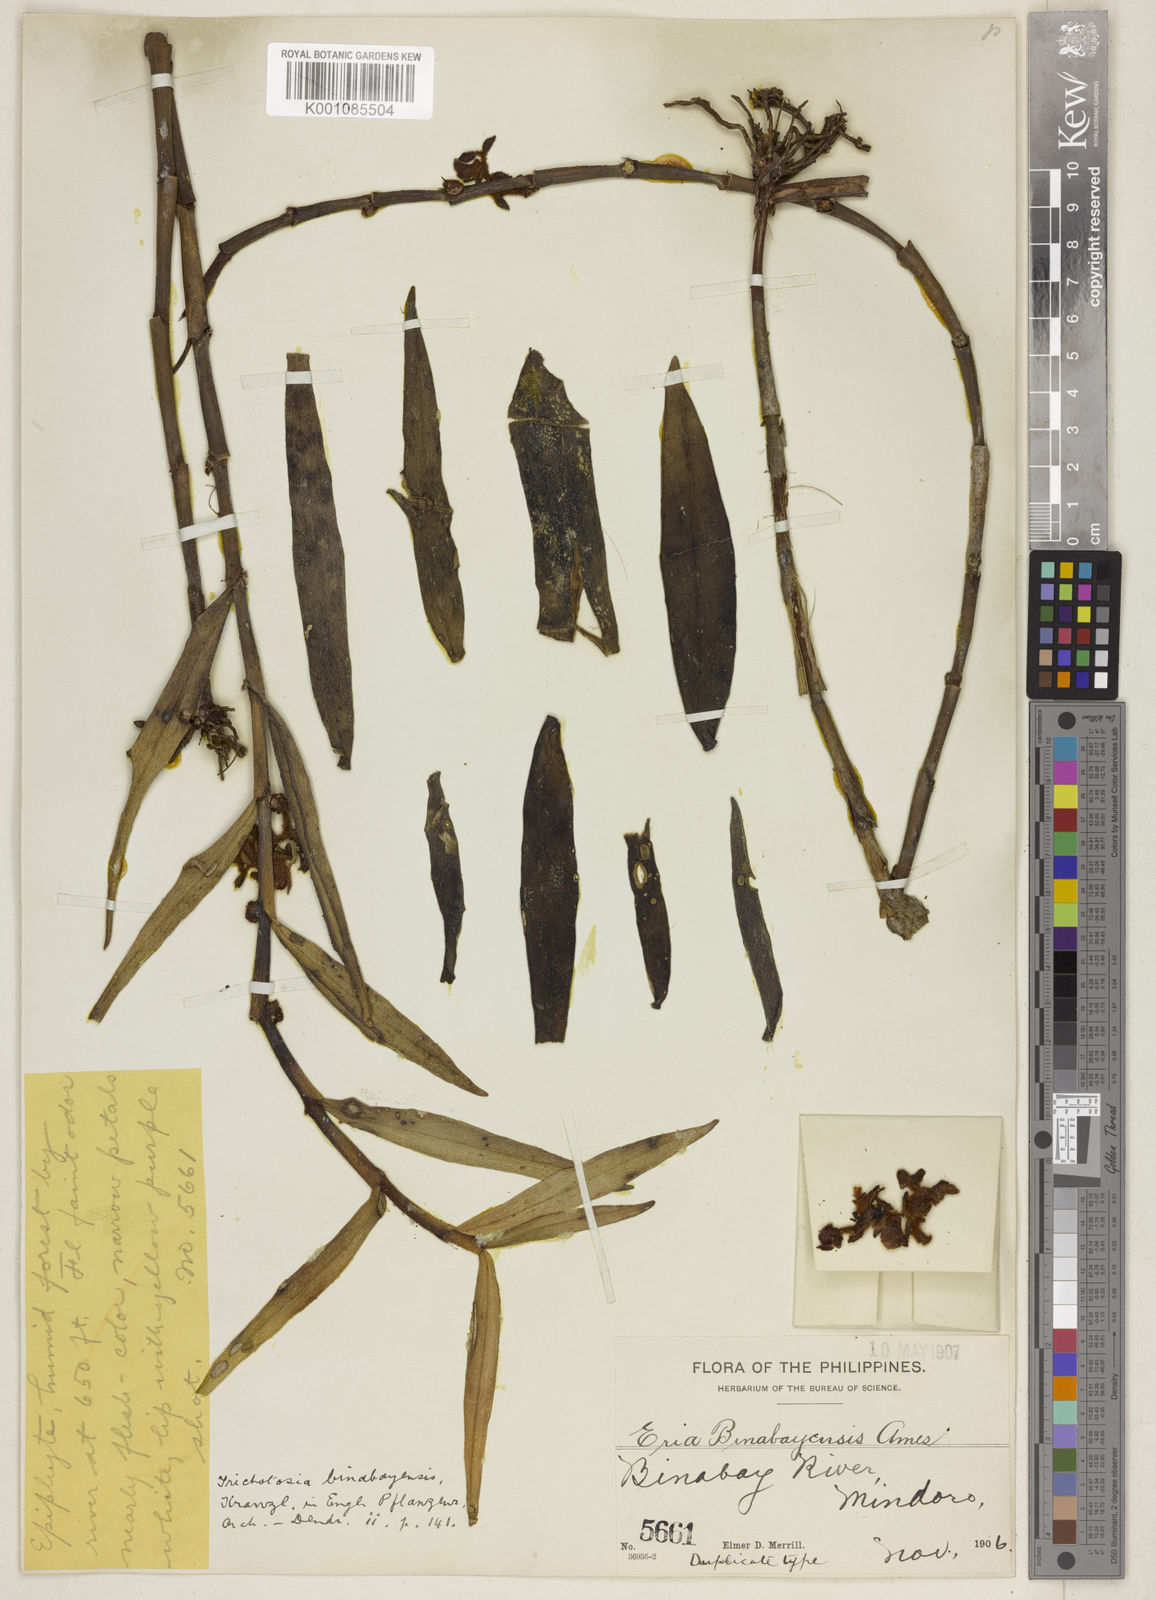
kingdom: Plantae
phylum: Tracheophyta
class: Liliopsida
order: Asparagales
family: Orchidaceae
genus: Eria
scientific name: Eria binabayensis
